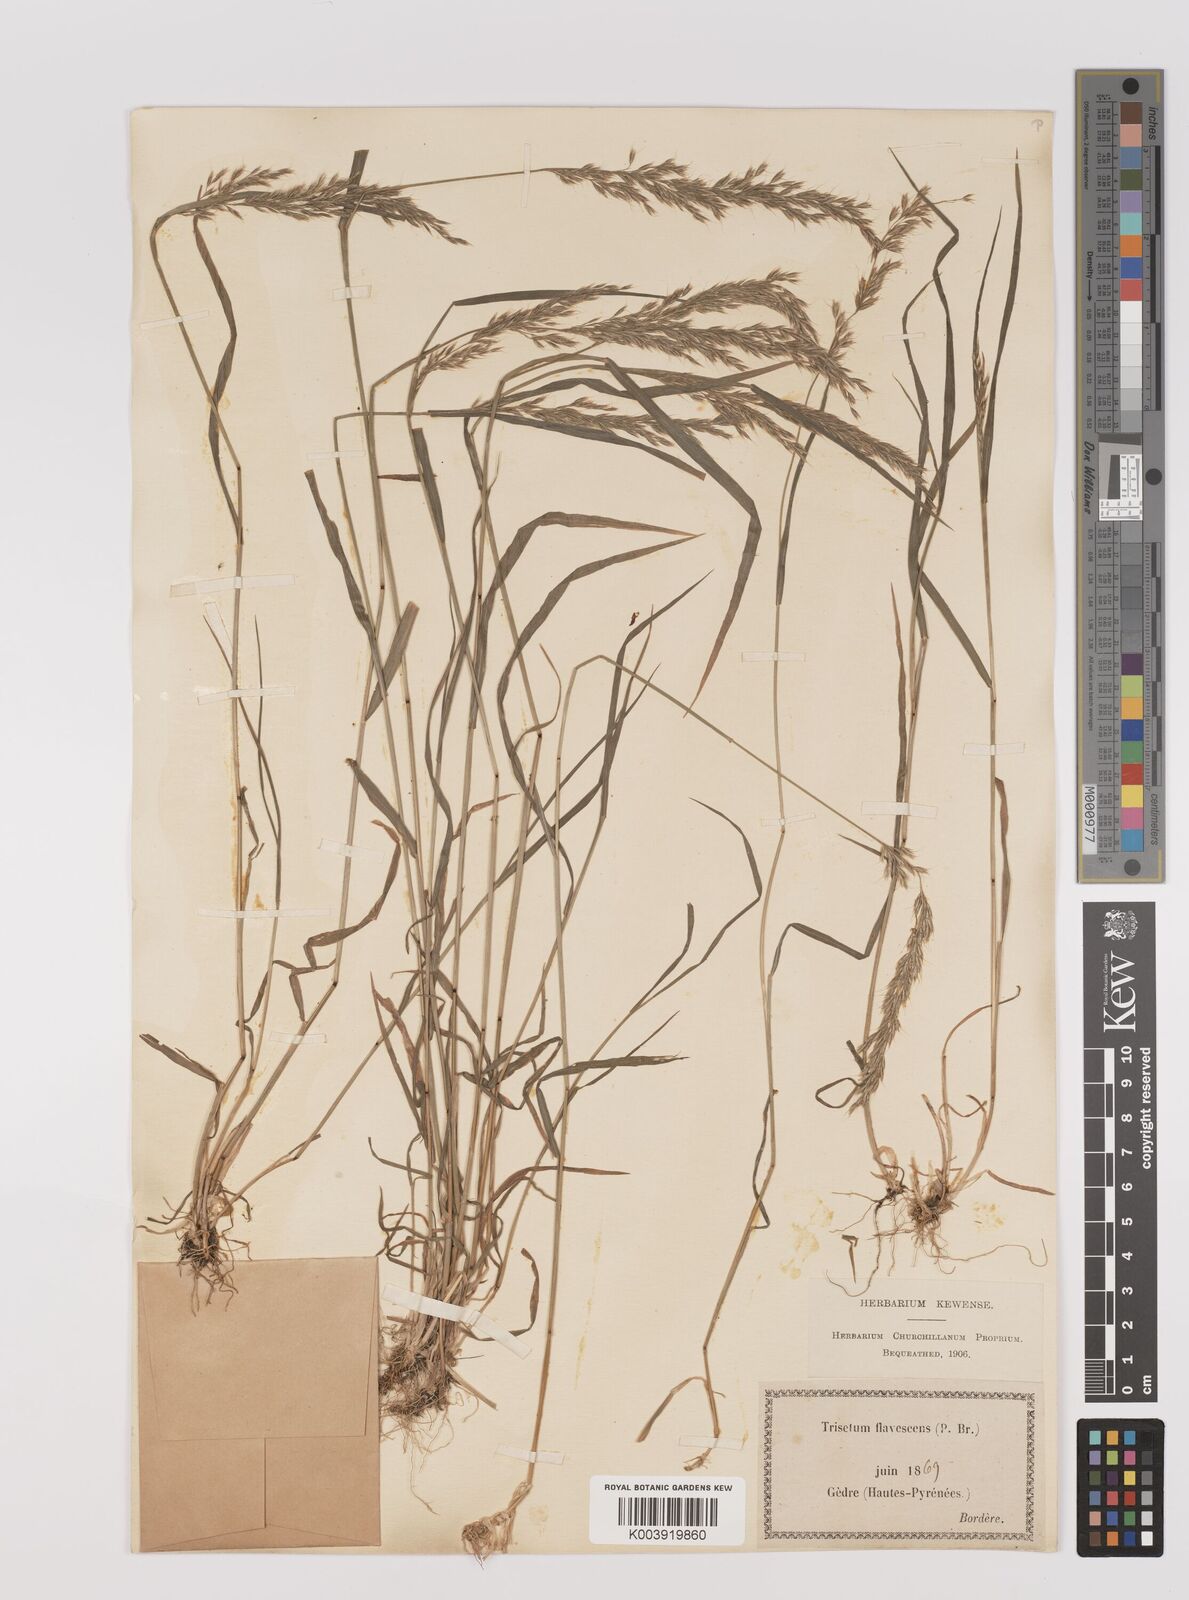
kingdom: Plantae
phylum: Tracheophyta
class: Liliopsida
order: Poales
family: Poaceae
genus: Trisetum
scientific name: Trisetum flavescens
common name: Yellow oat-grass
